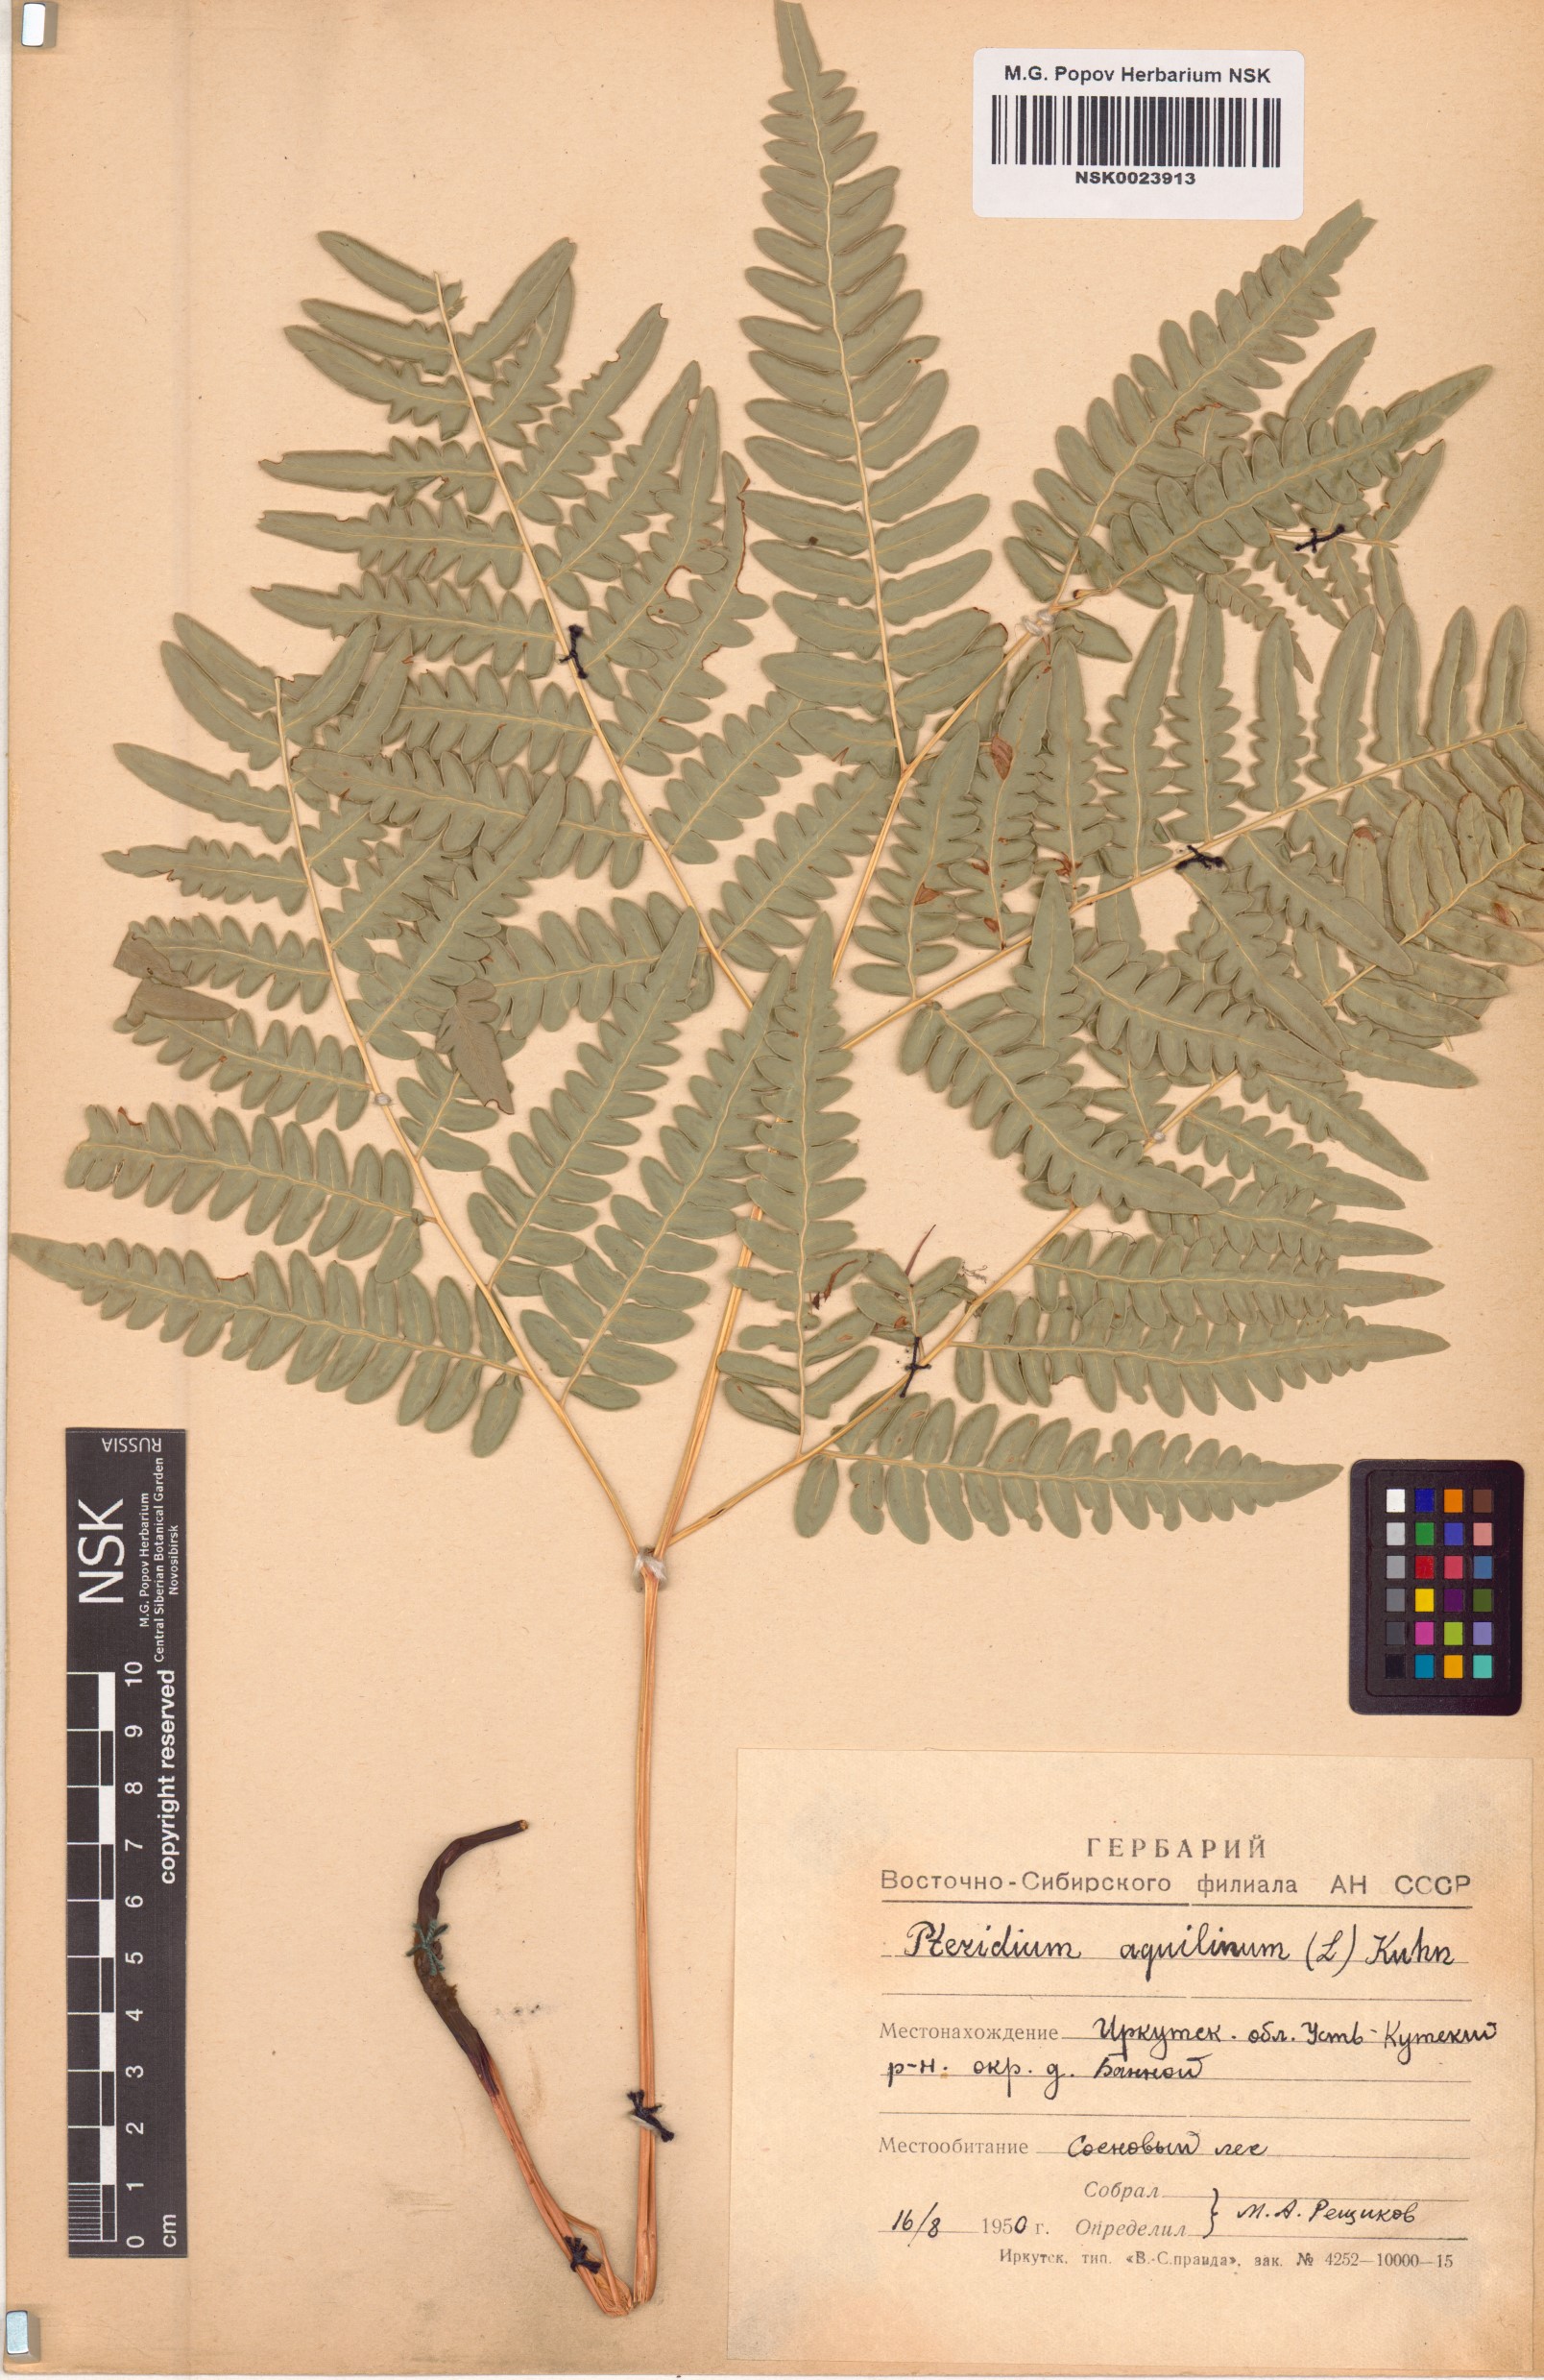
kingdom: Plantae
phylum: Tracheophyta
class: Polypodiopsida
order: Polypodiales
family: Dennstaedtiaceae
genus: Pteridium
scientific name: Pteridium aquilinum
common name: Bracken
